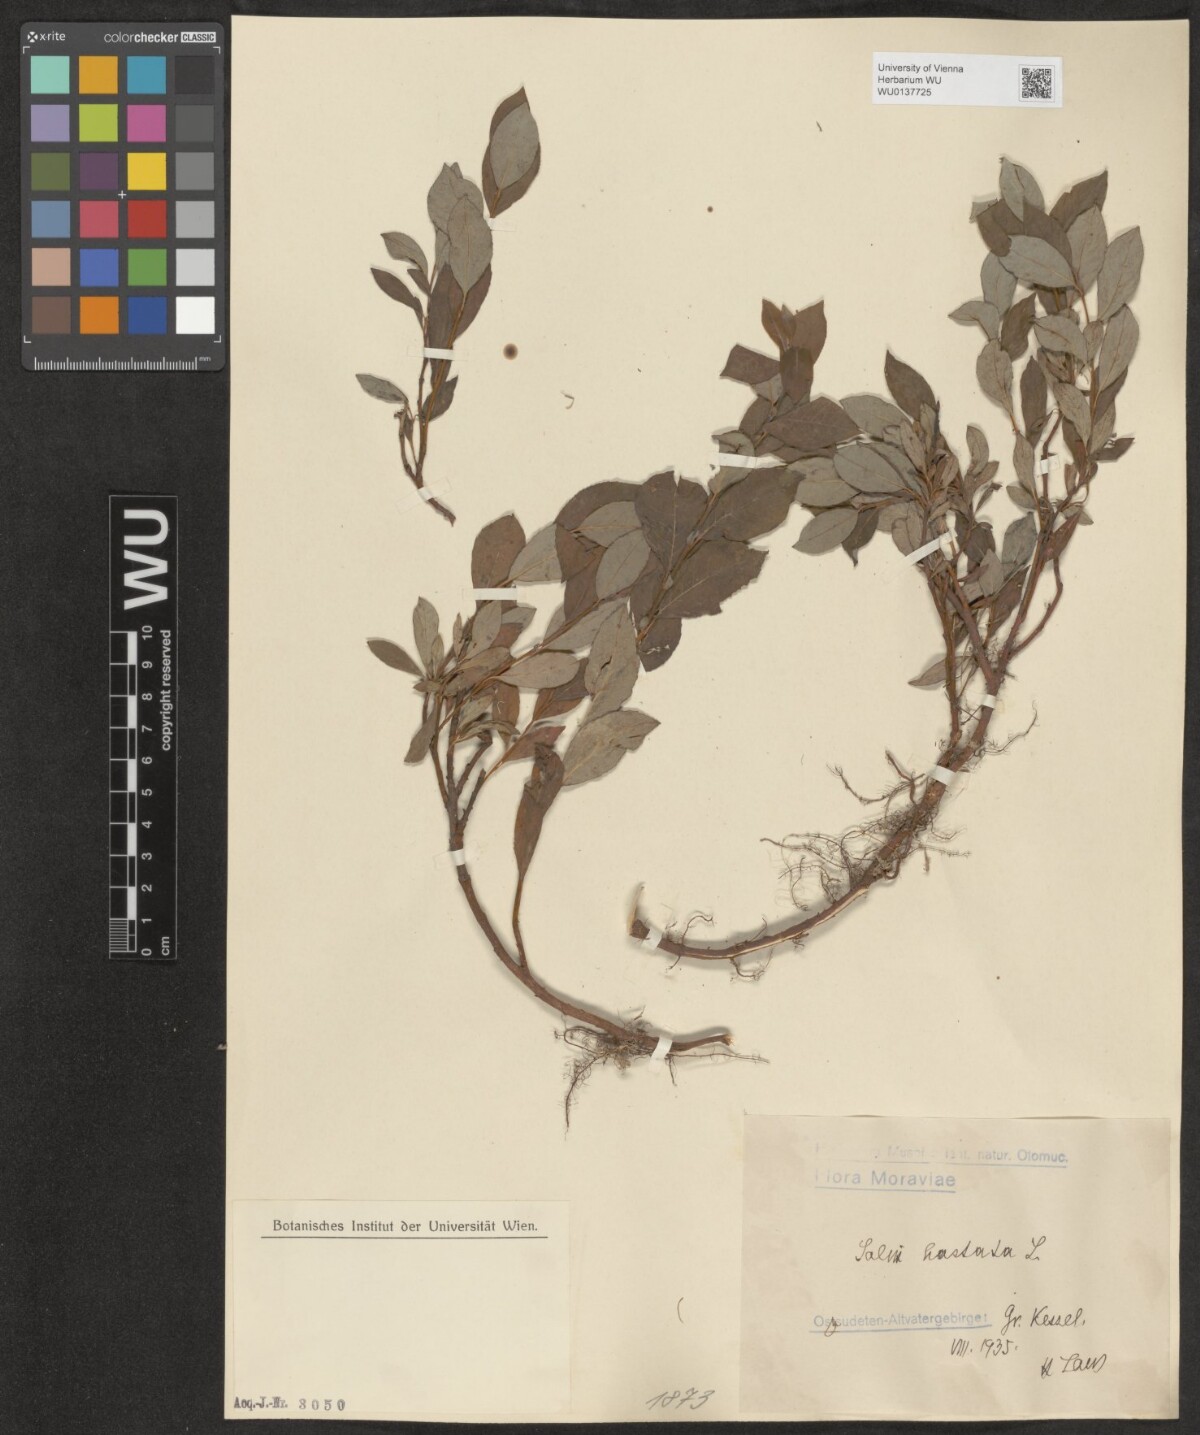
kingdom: Plantae
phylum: Tracheophyta
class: Magnoliopsida
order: Malpighiales
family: Salicaceae
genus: Salix
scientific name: Salix hastata
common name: Halberd willow
